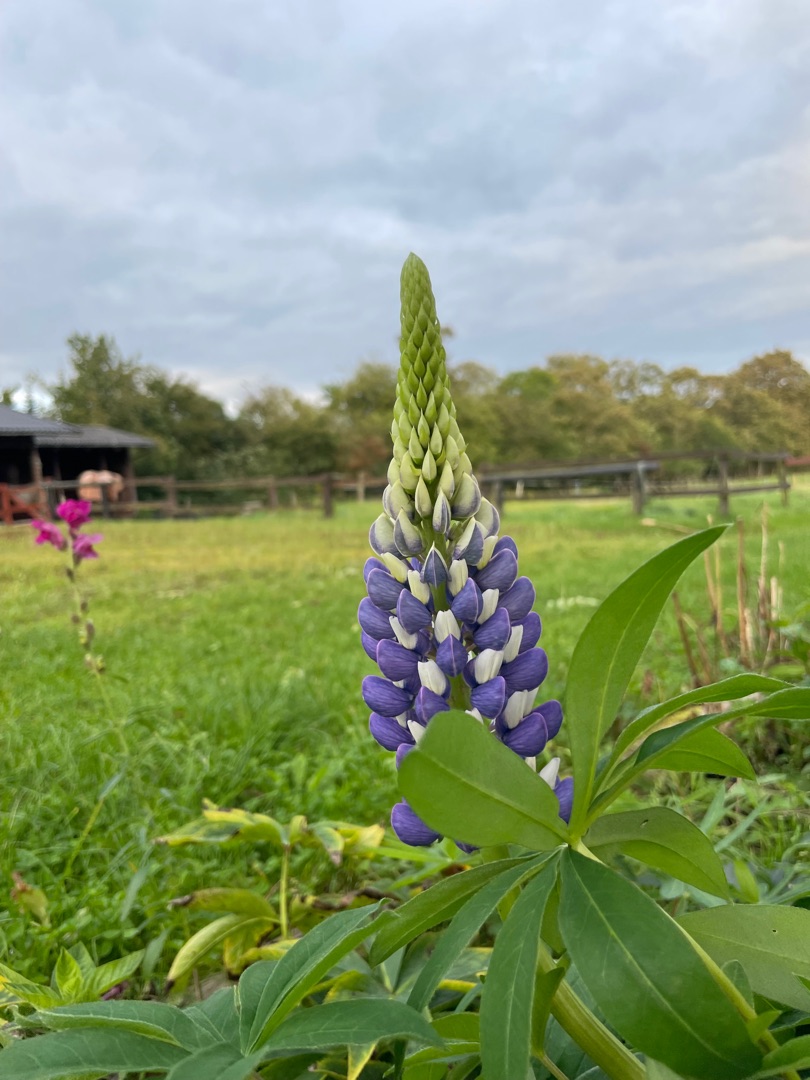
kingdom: Plantae
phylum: Tracheophyta
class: Magnoliopsida
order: Fabales
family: Fabaceae
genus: Lupinus
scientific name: Lupinus polyphyllus
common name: Mangebladet lupin
